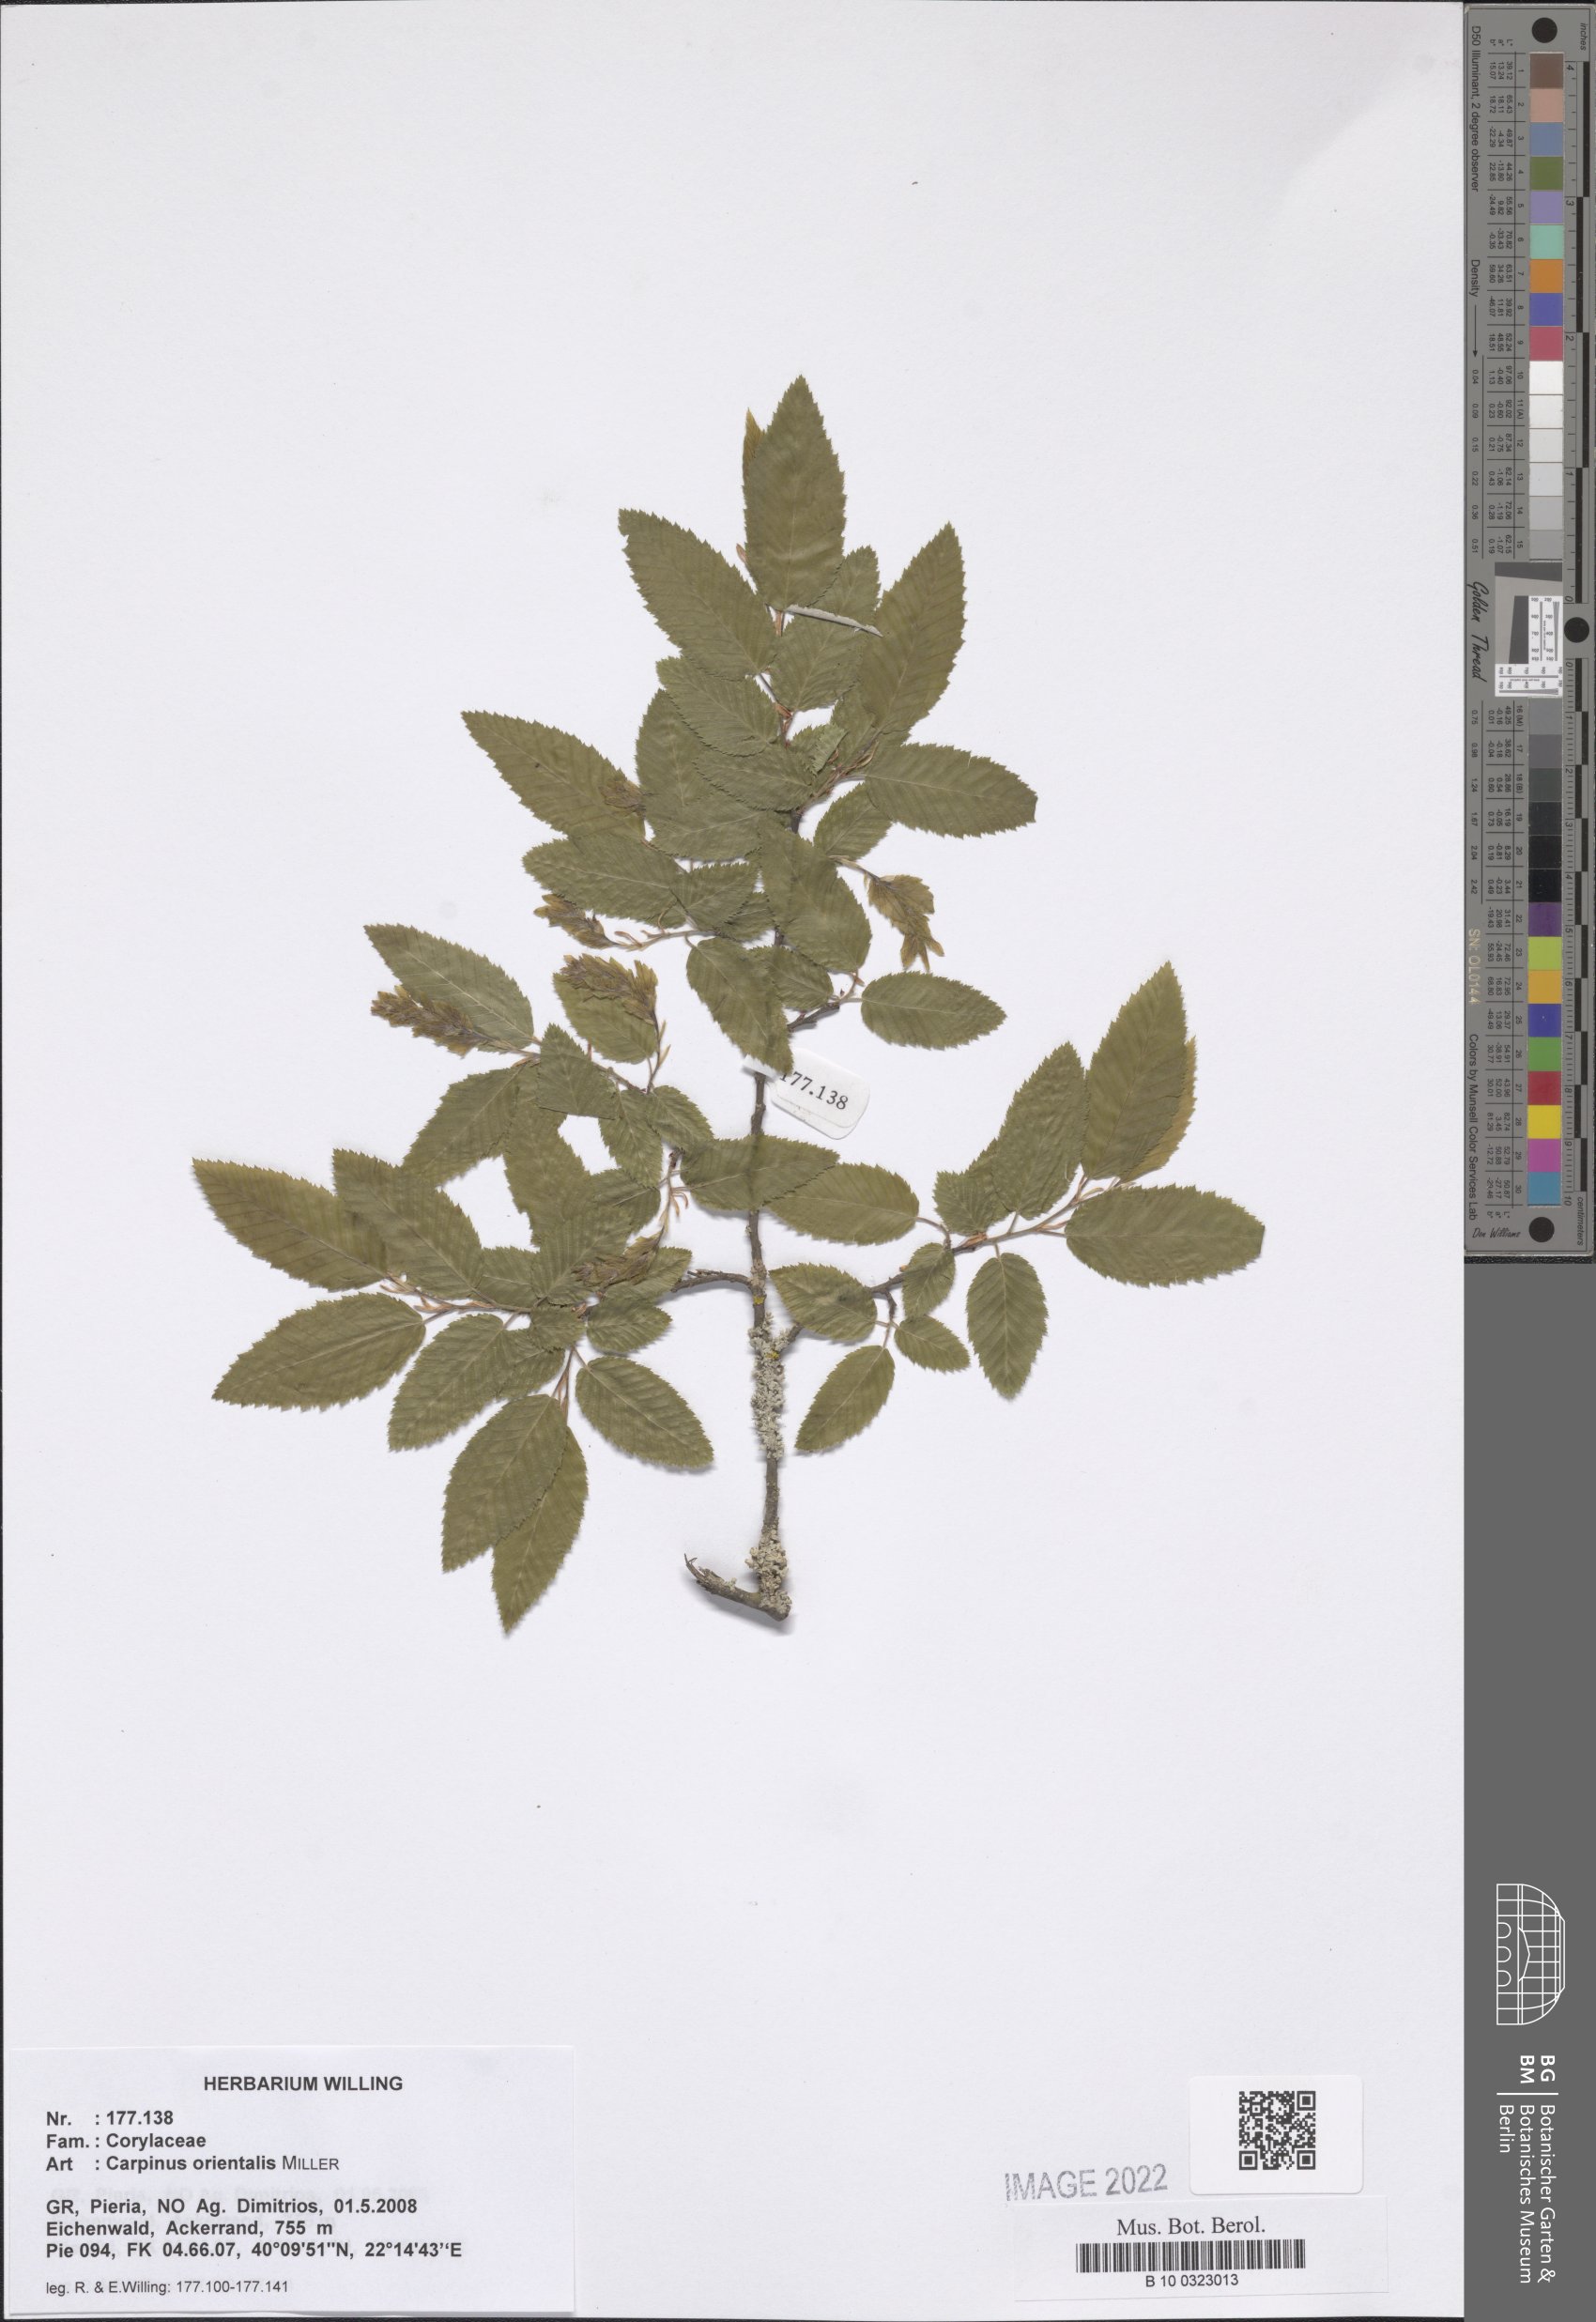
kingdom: Plantae
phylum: Tracheophyta
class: Magnoliopsida
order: Fagales
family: Betulaceae
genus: Carpinus
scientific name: Carpinus orientalis
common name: Eastern hornbeam
